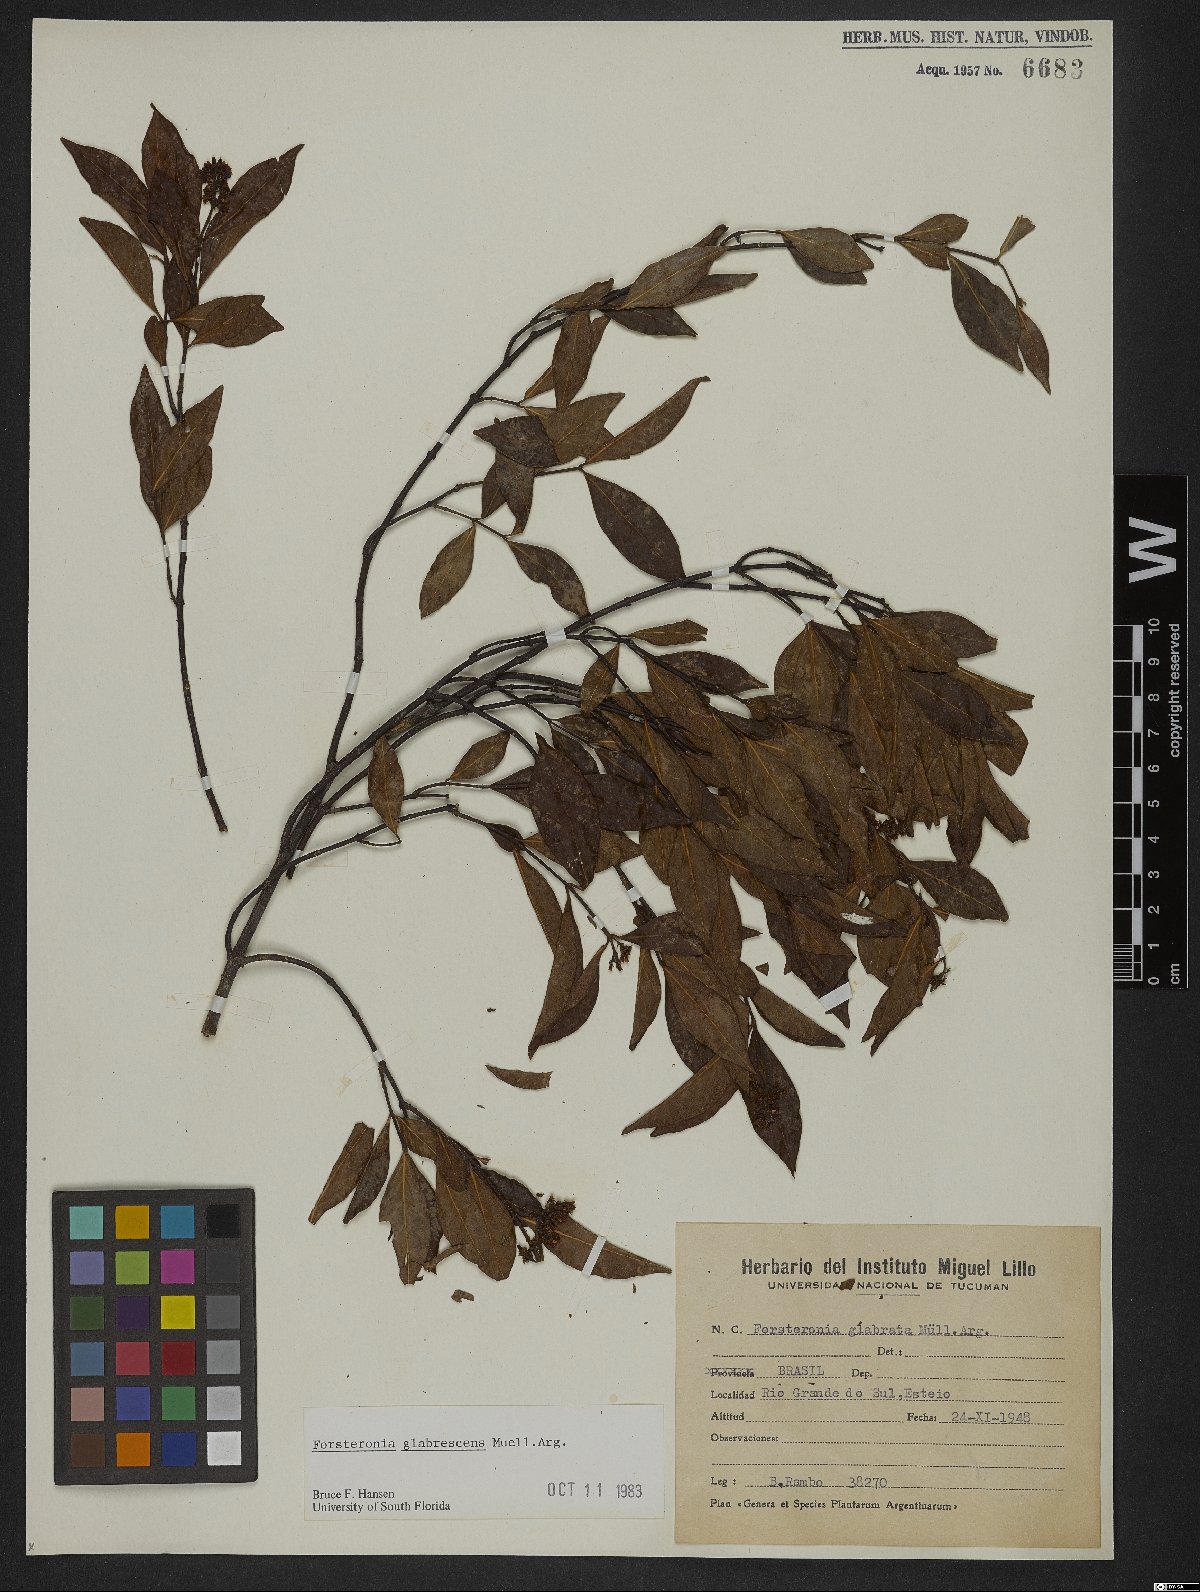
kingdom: Plantae
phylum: Tracheophyta
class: Magnoliopsida
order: Gentianales
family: Apocynaceae
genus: Forsteronia
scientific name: Forsteronia glabrescens
